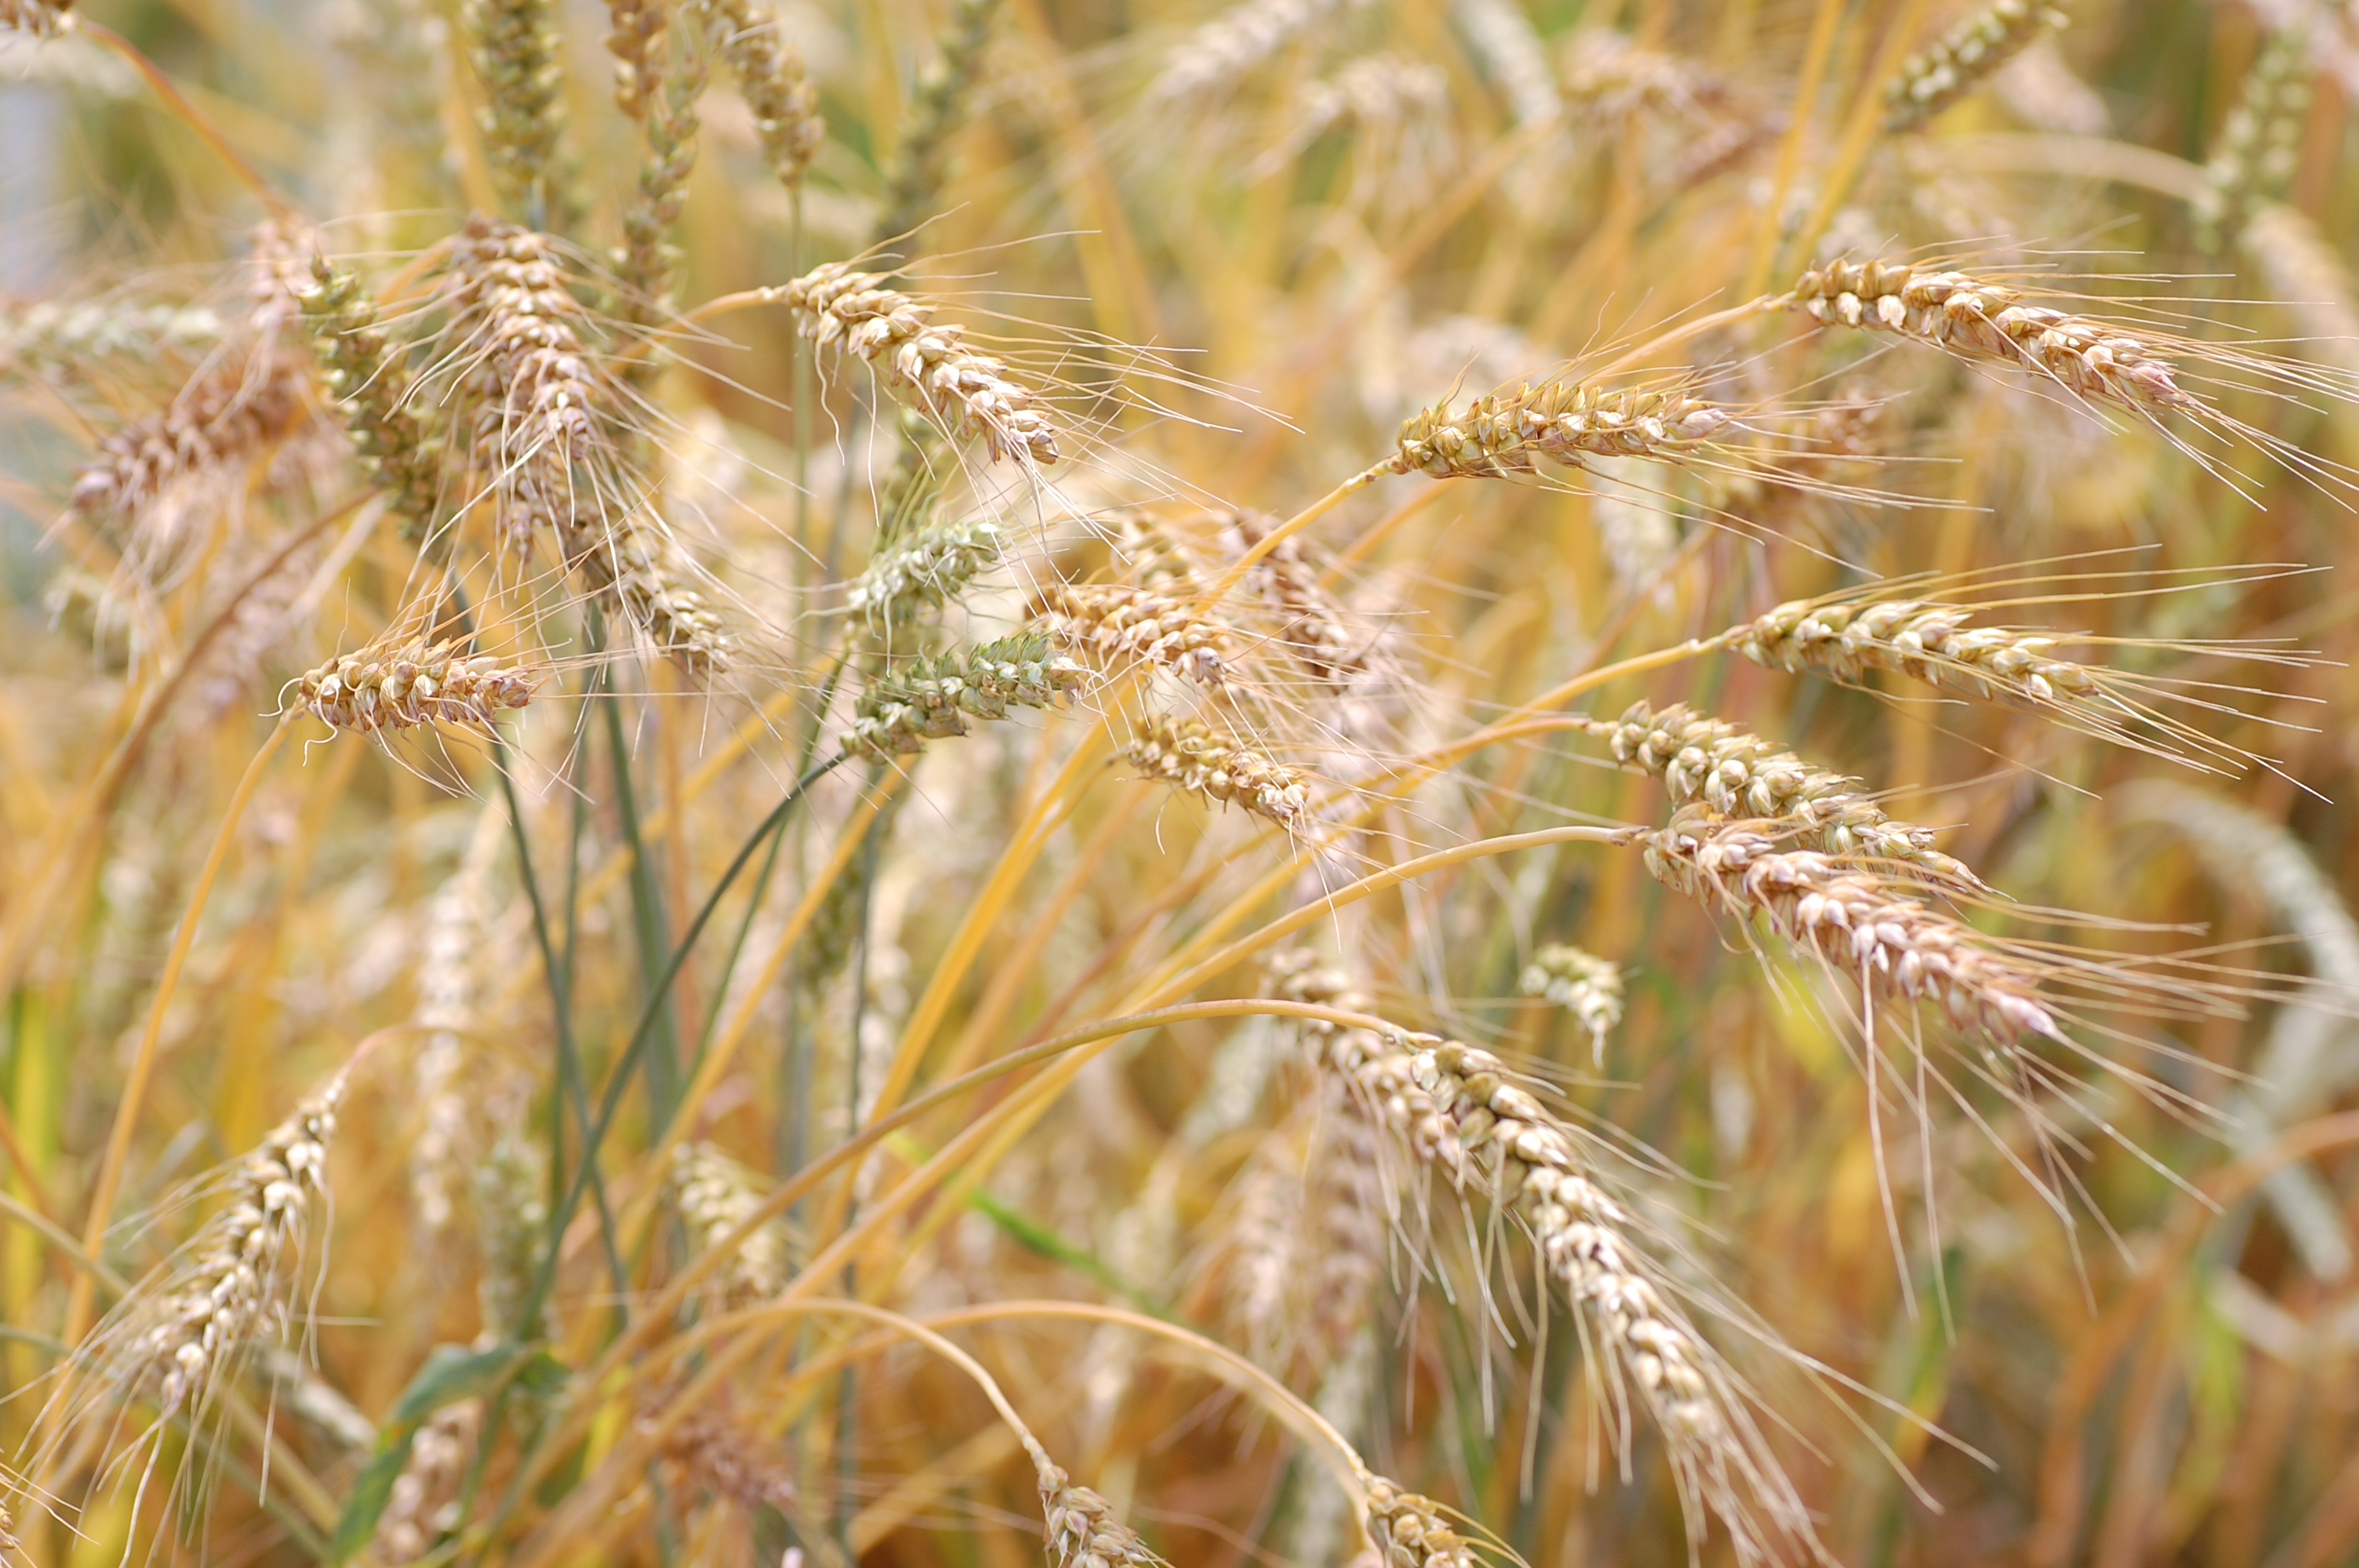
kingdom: Plantae
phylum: Tracheophyta
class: Liliopsida
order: Poales
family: Poaceae
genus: Triticum
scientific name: Triticum aestivum
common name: Common wheat
